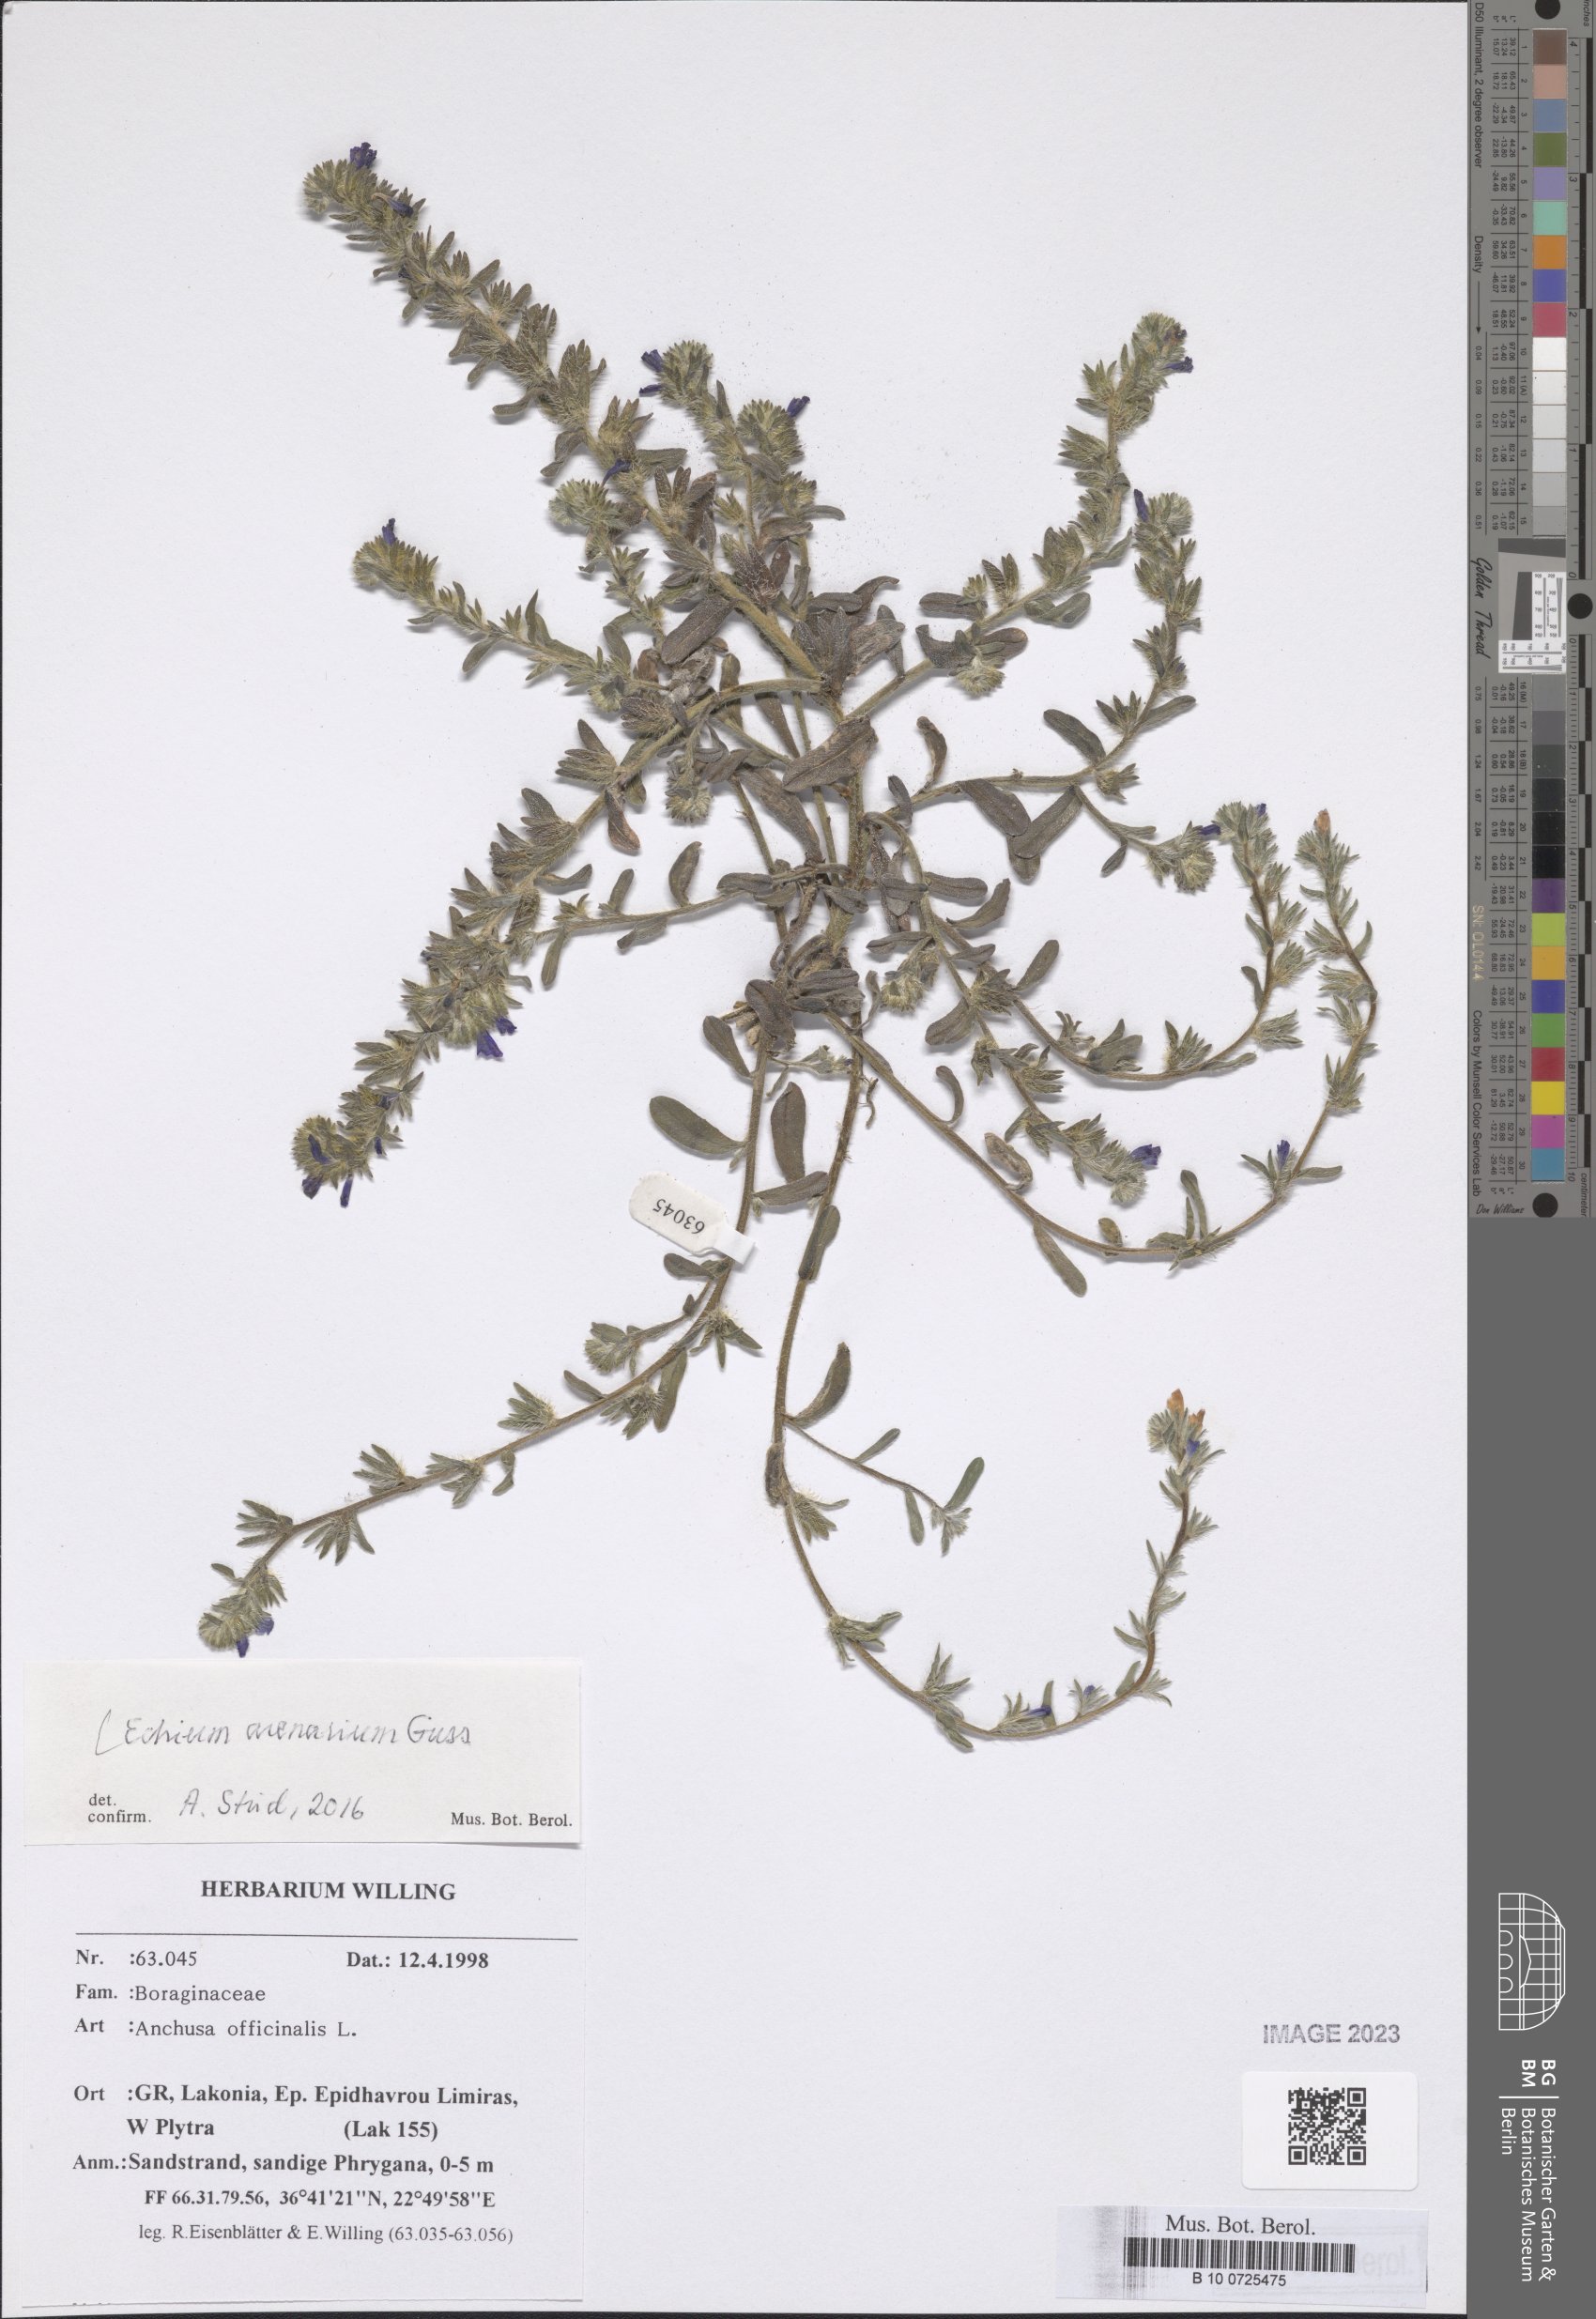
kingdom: Plantae
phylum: Tracheophyta
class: Magnoliopsida
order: Boraginales
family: Boraginaceae
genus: Echium
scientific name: Echium arenarium
